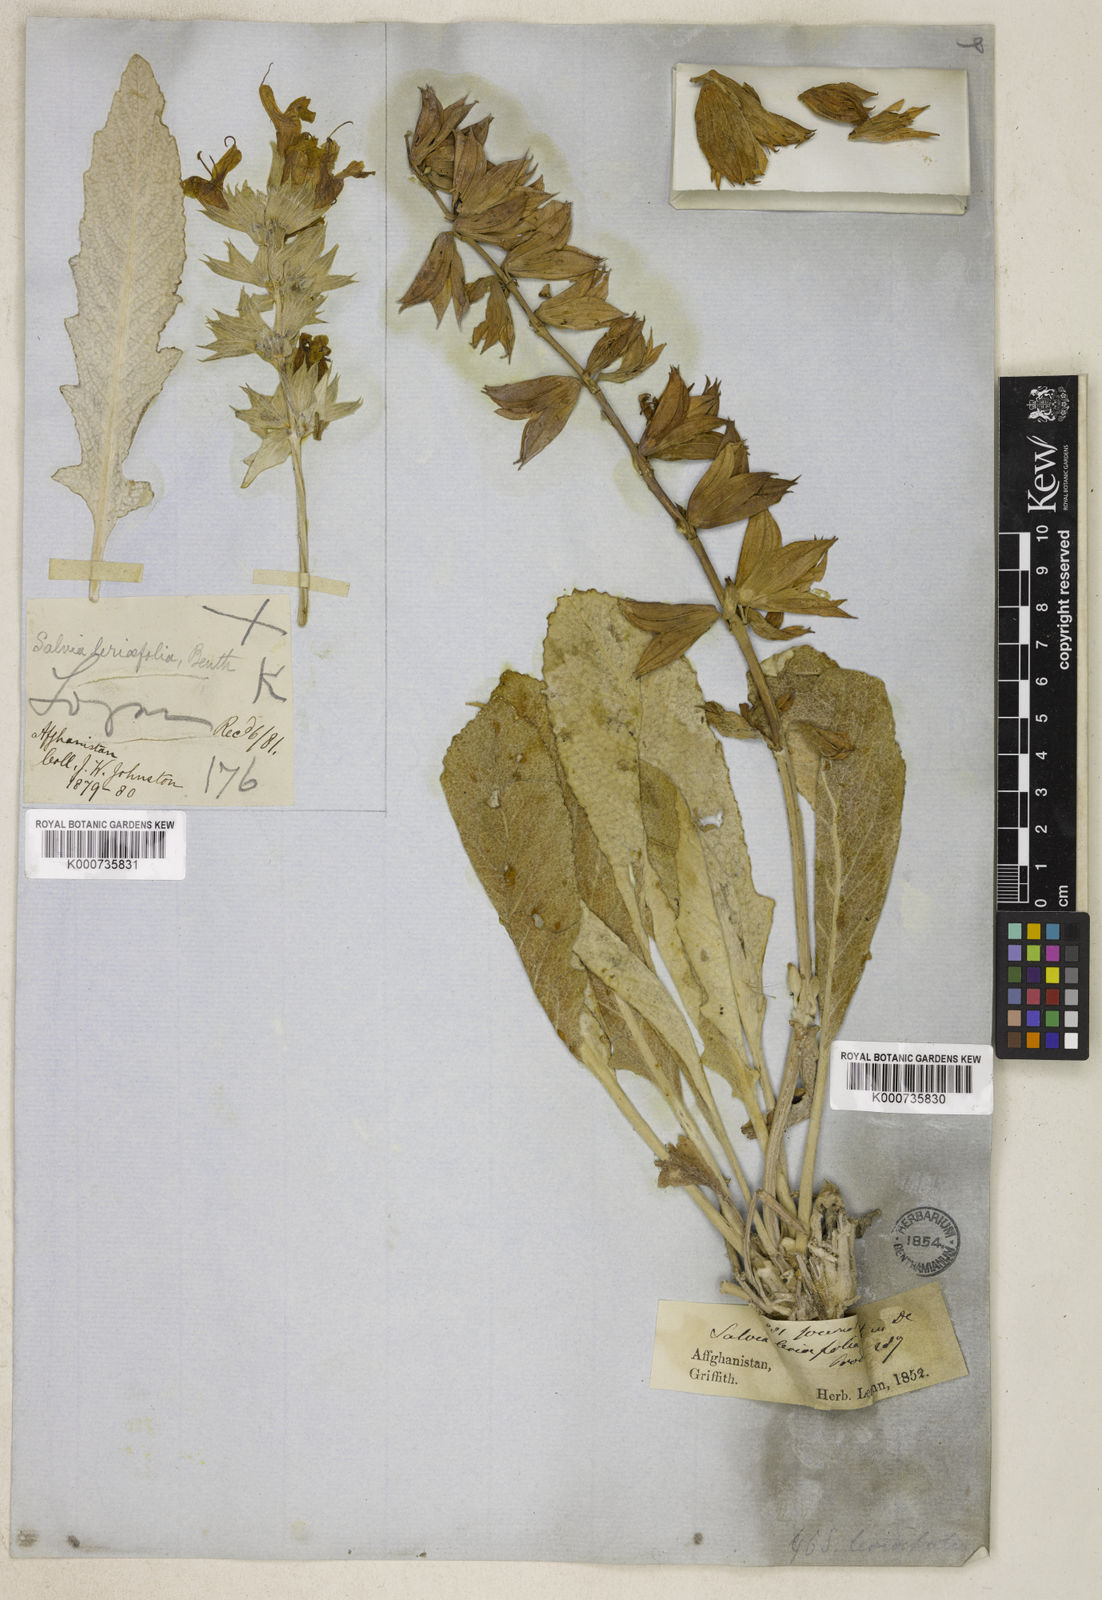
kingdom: Plantae
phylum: Tracheophyta
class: Magnoliopsida
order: Lamiales
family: Lamiaceae
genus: Salvia
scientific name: Salvia leriifolia
